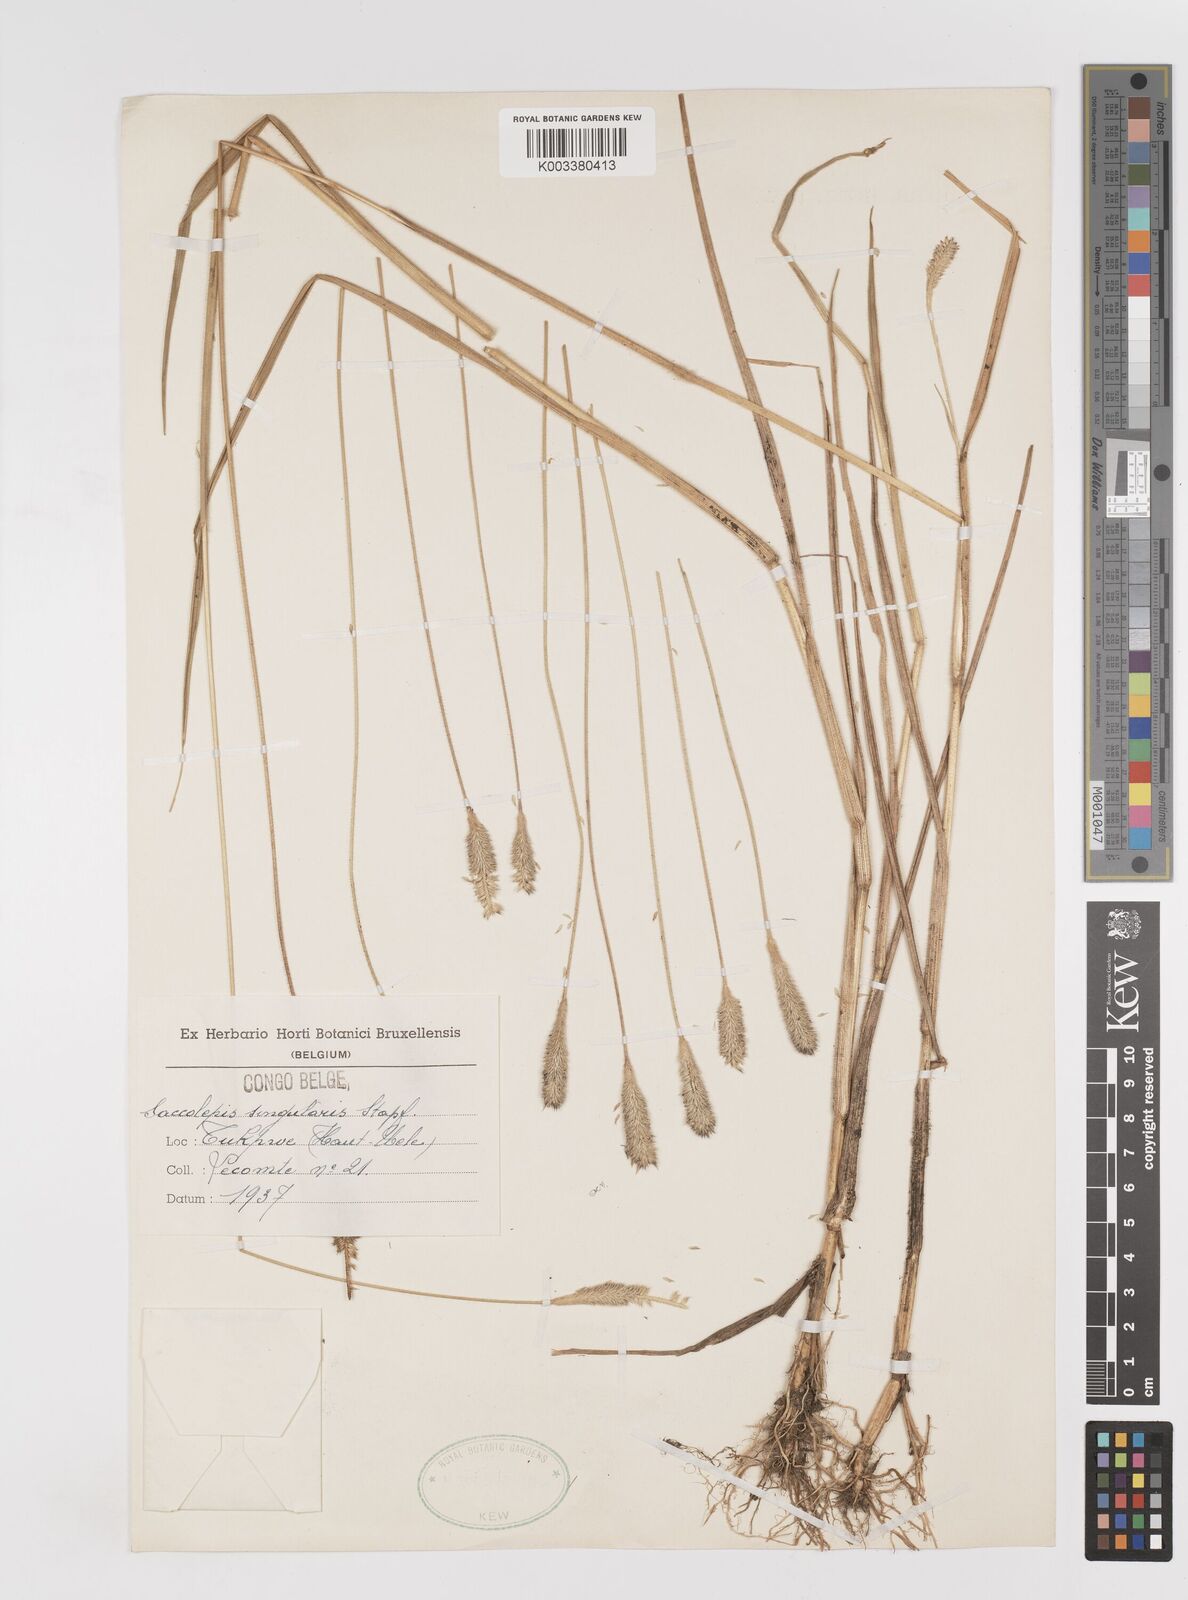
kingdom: Plantae
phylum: Tracheophyta
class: Liliopsida
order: Poales
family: Poaceae
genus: Sacciolepis
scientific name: Sacciolepis cingularis
